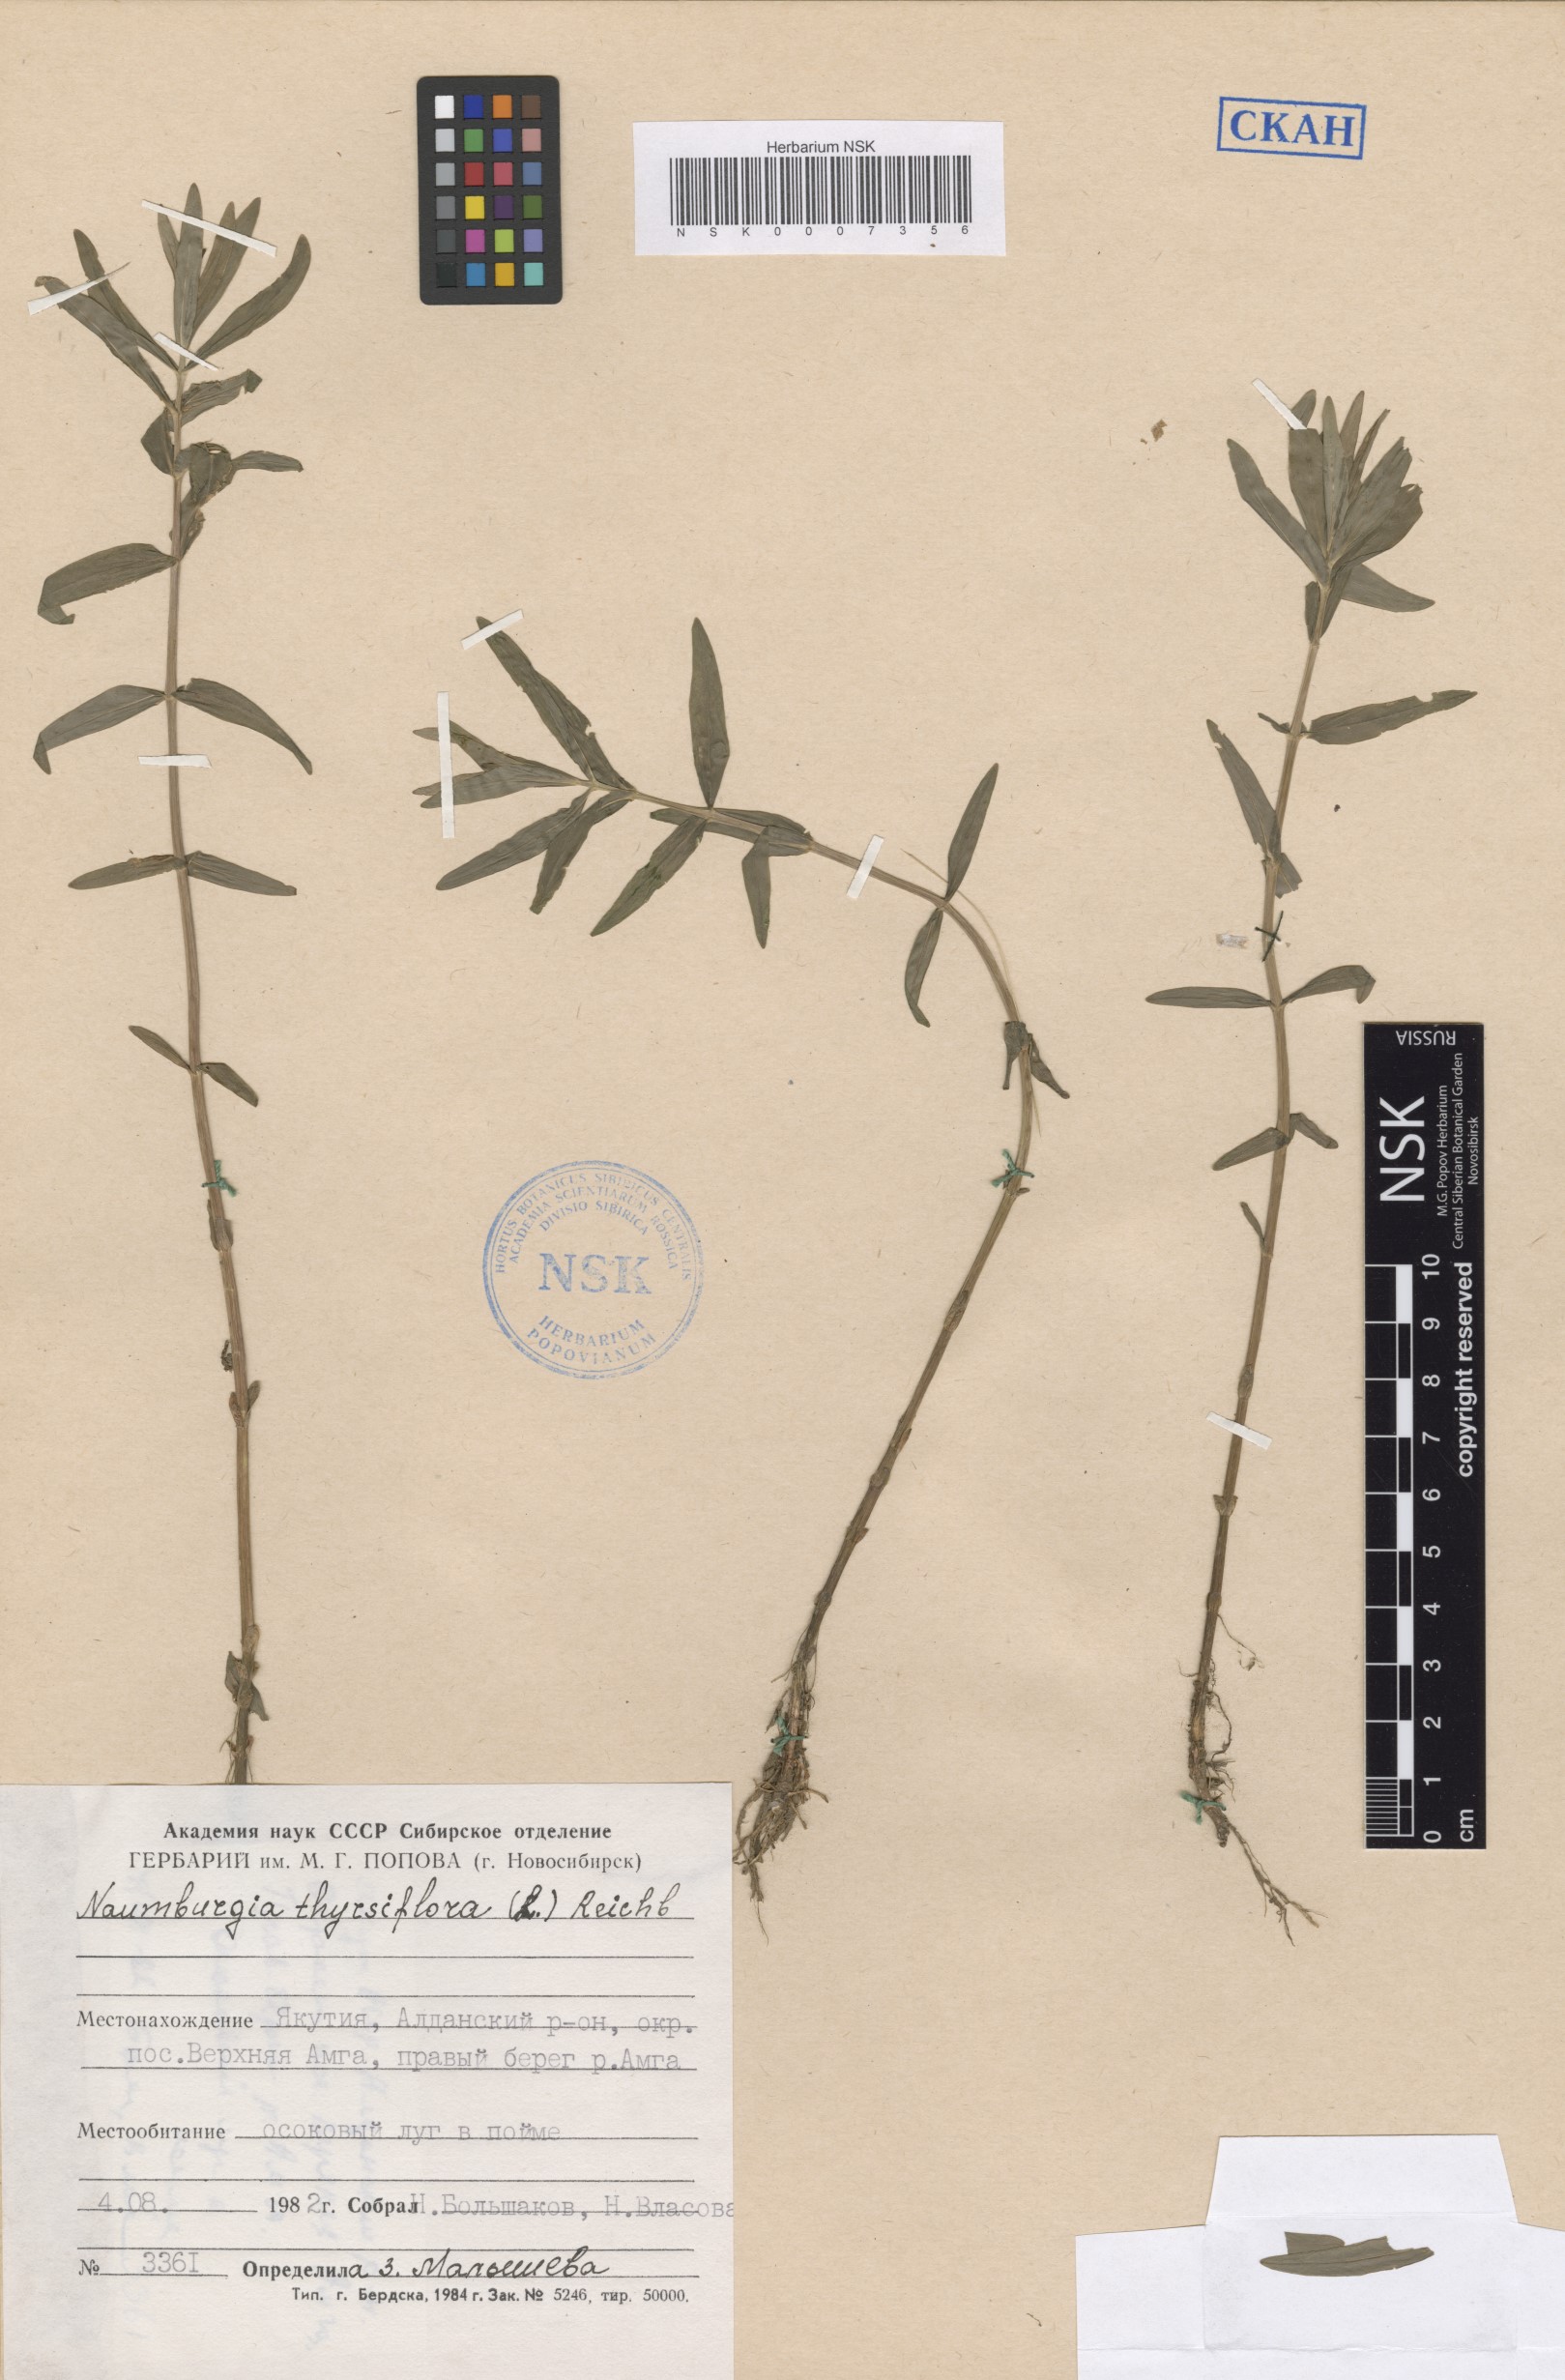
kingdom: Plantae
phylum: Tracheophyta
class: Magnoliopsida
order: Ericales
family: Primulaceae
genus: Lysimachia
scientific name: Lysimachia thyrsiflora
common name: Tufted loosestrife
